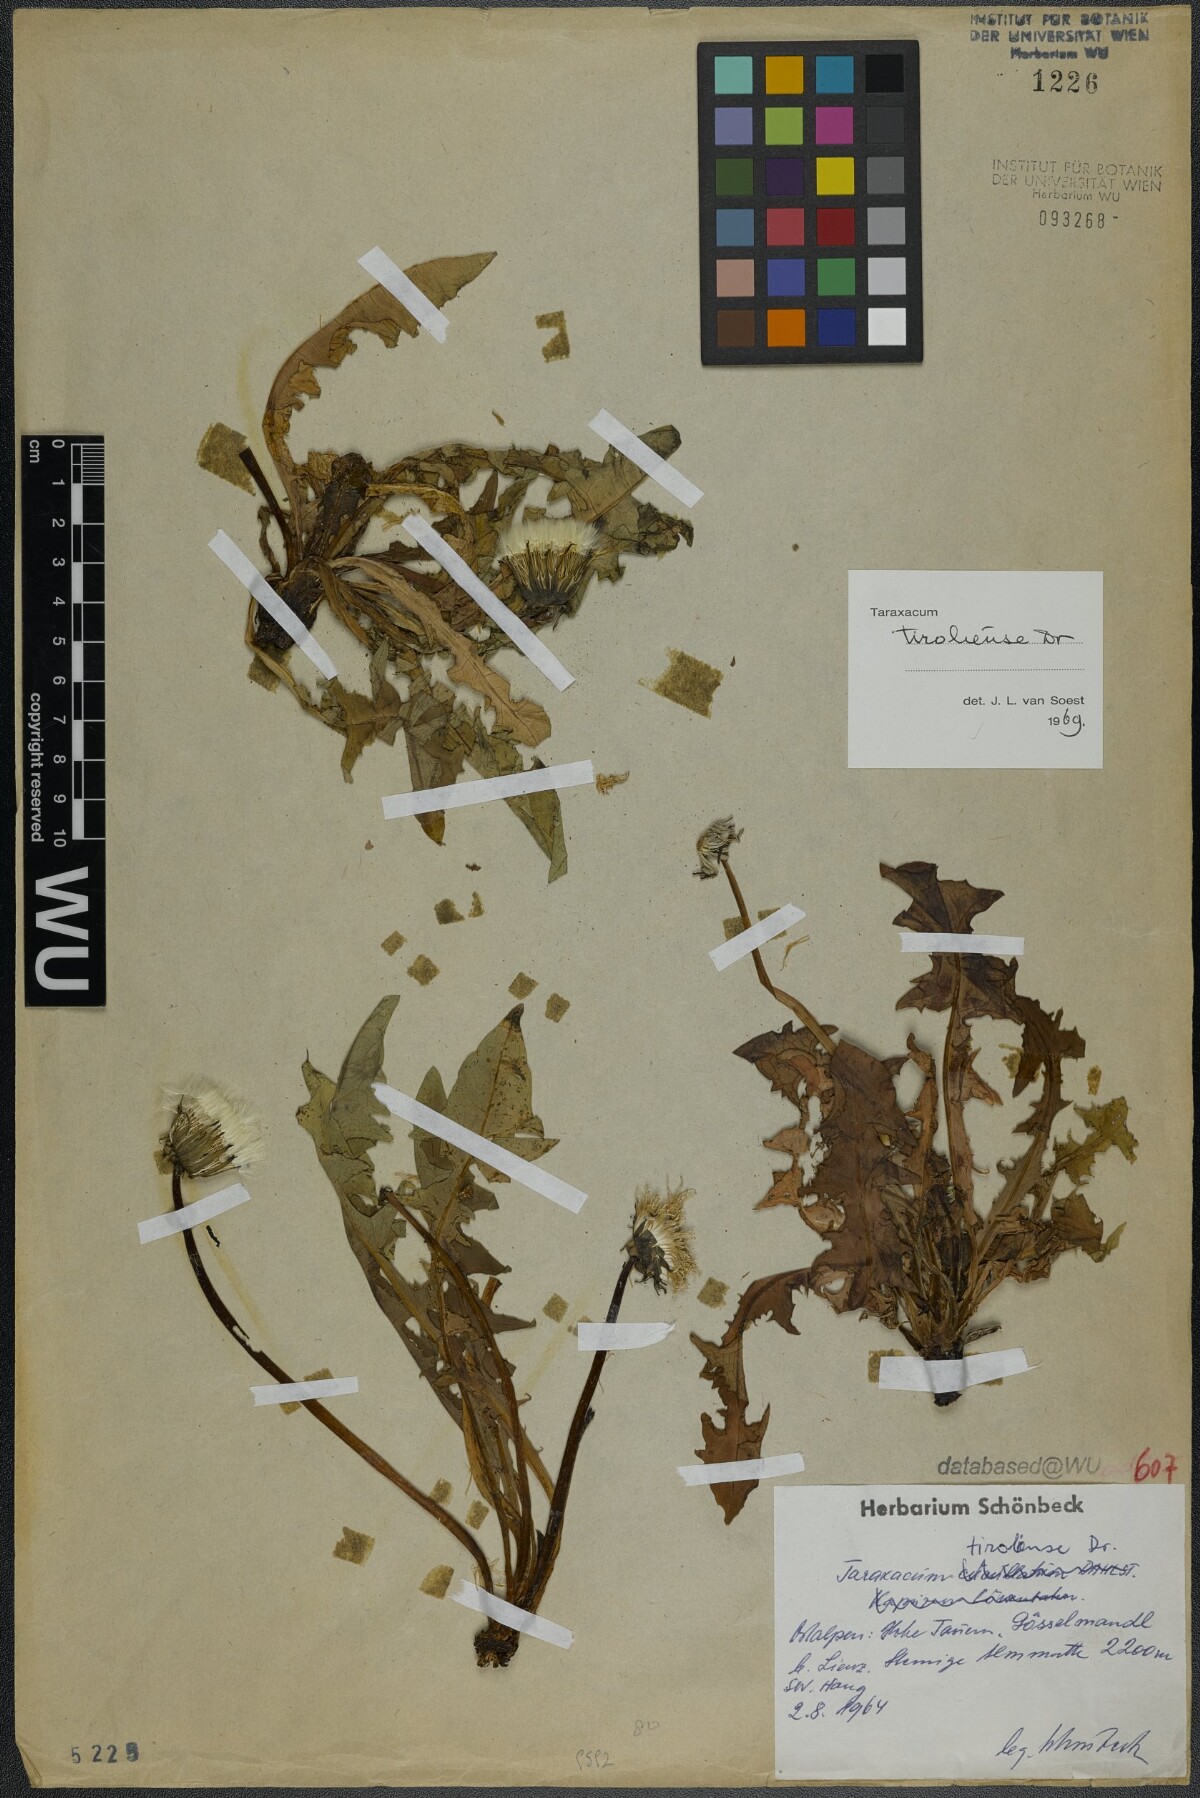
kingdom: Plantae
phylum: Tracheophyta
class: Magnoliopsida
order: Asterales
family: Asteraceae
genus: Taraxacum
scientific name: Taraxacum tiroliense
